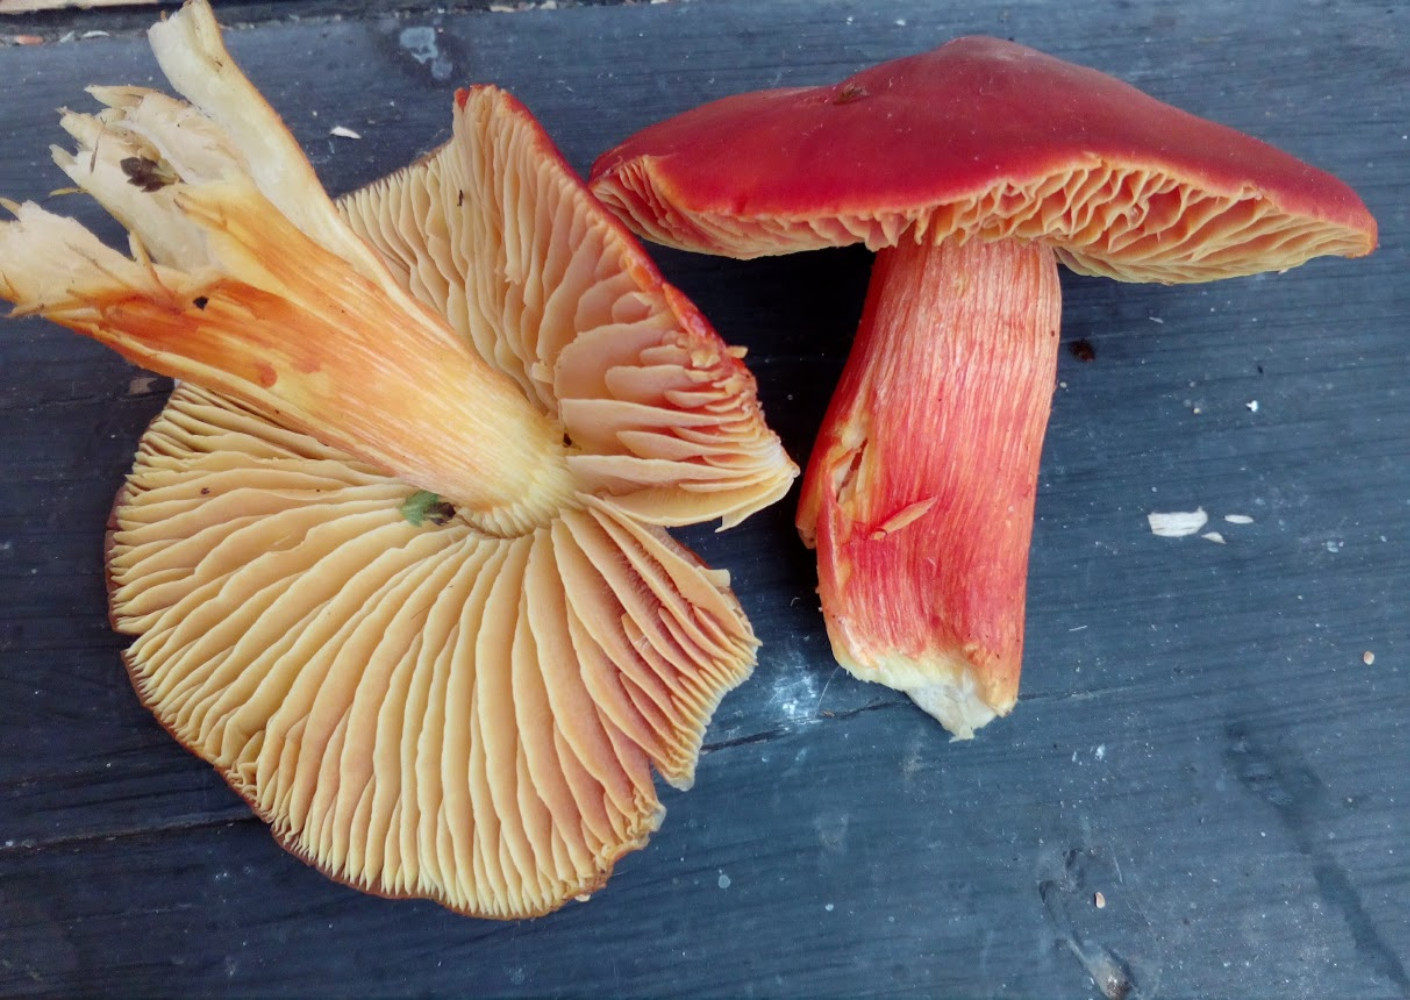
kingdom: Fungi
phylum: Basidiomycota
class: Agaricomycetes
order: Agaricales
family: Hygrophoraceae
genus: Hygrocybe
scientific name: Hygrocybe punicea
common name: skarlagen-vokshat
